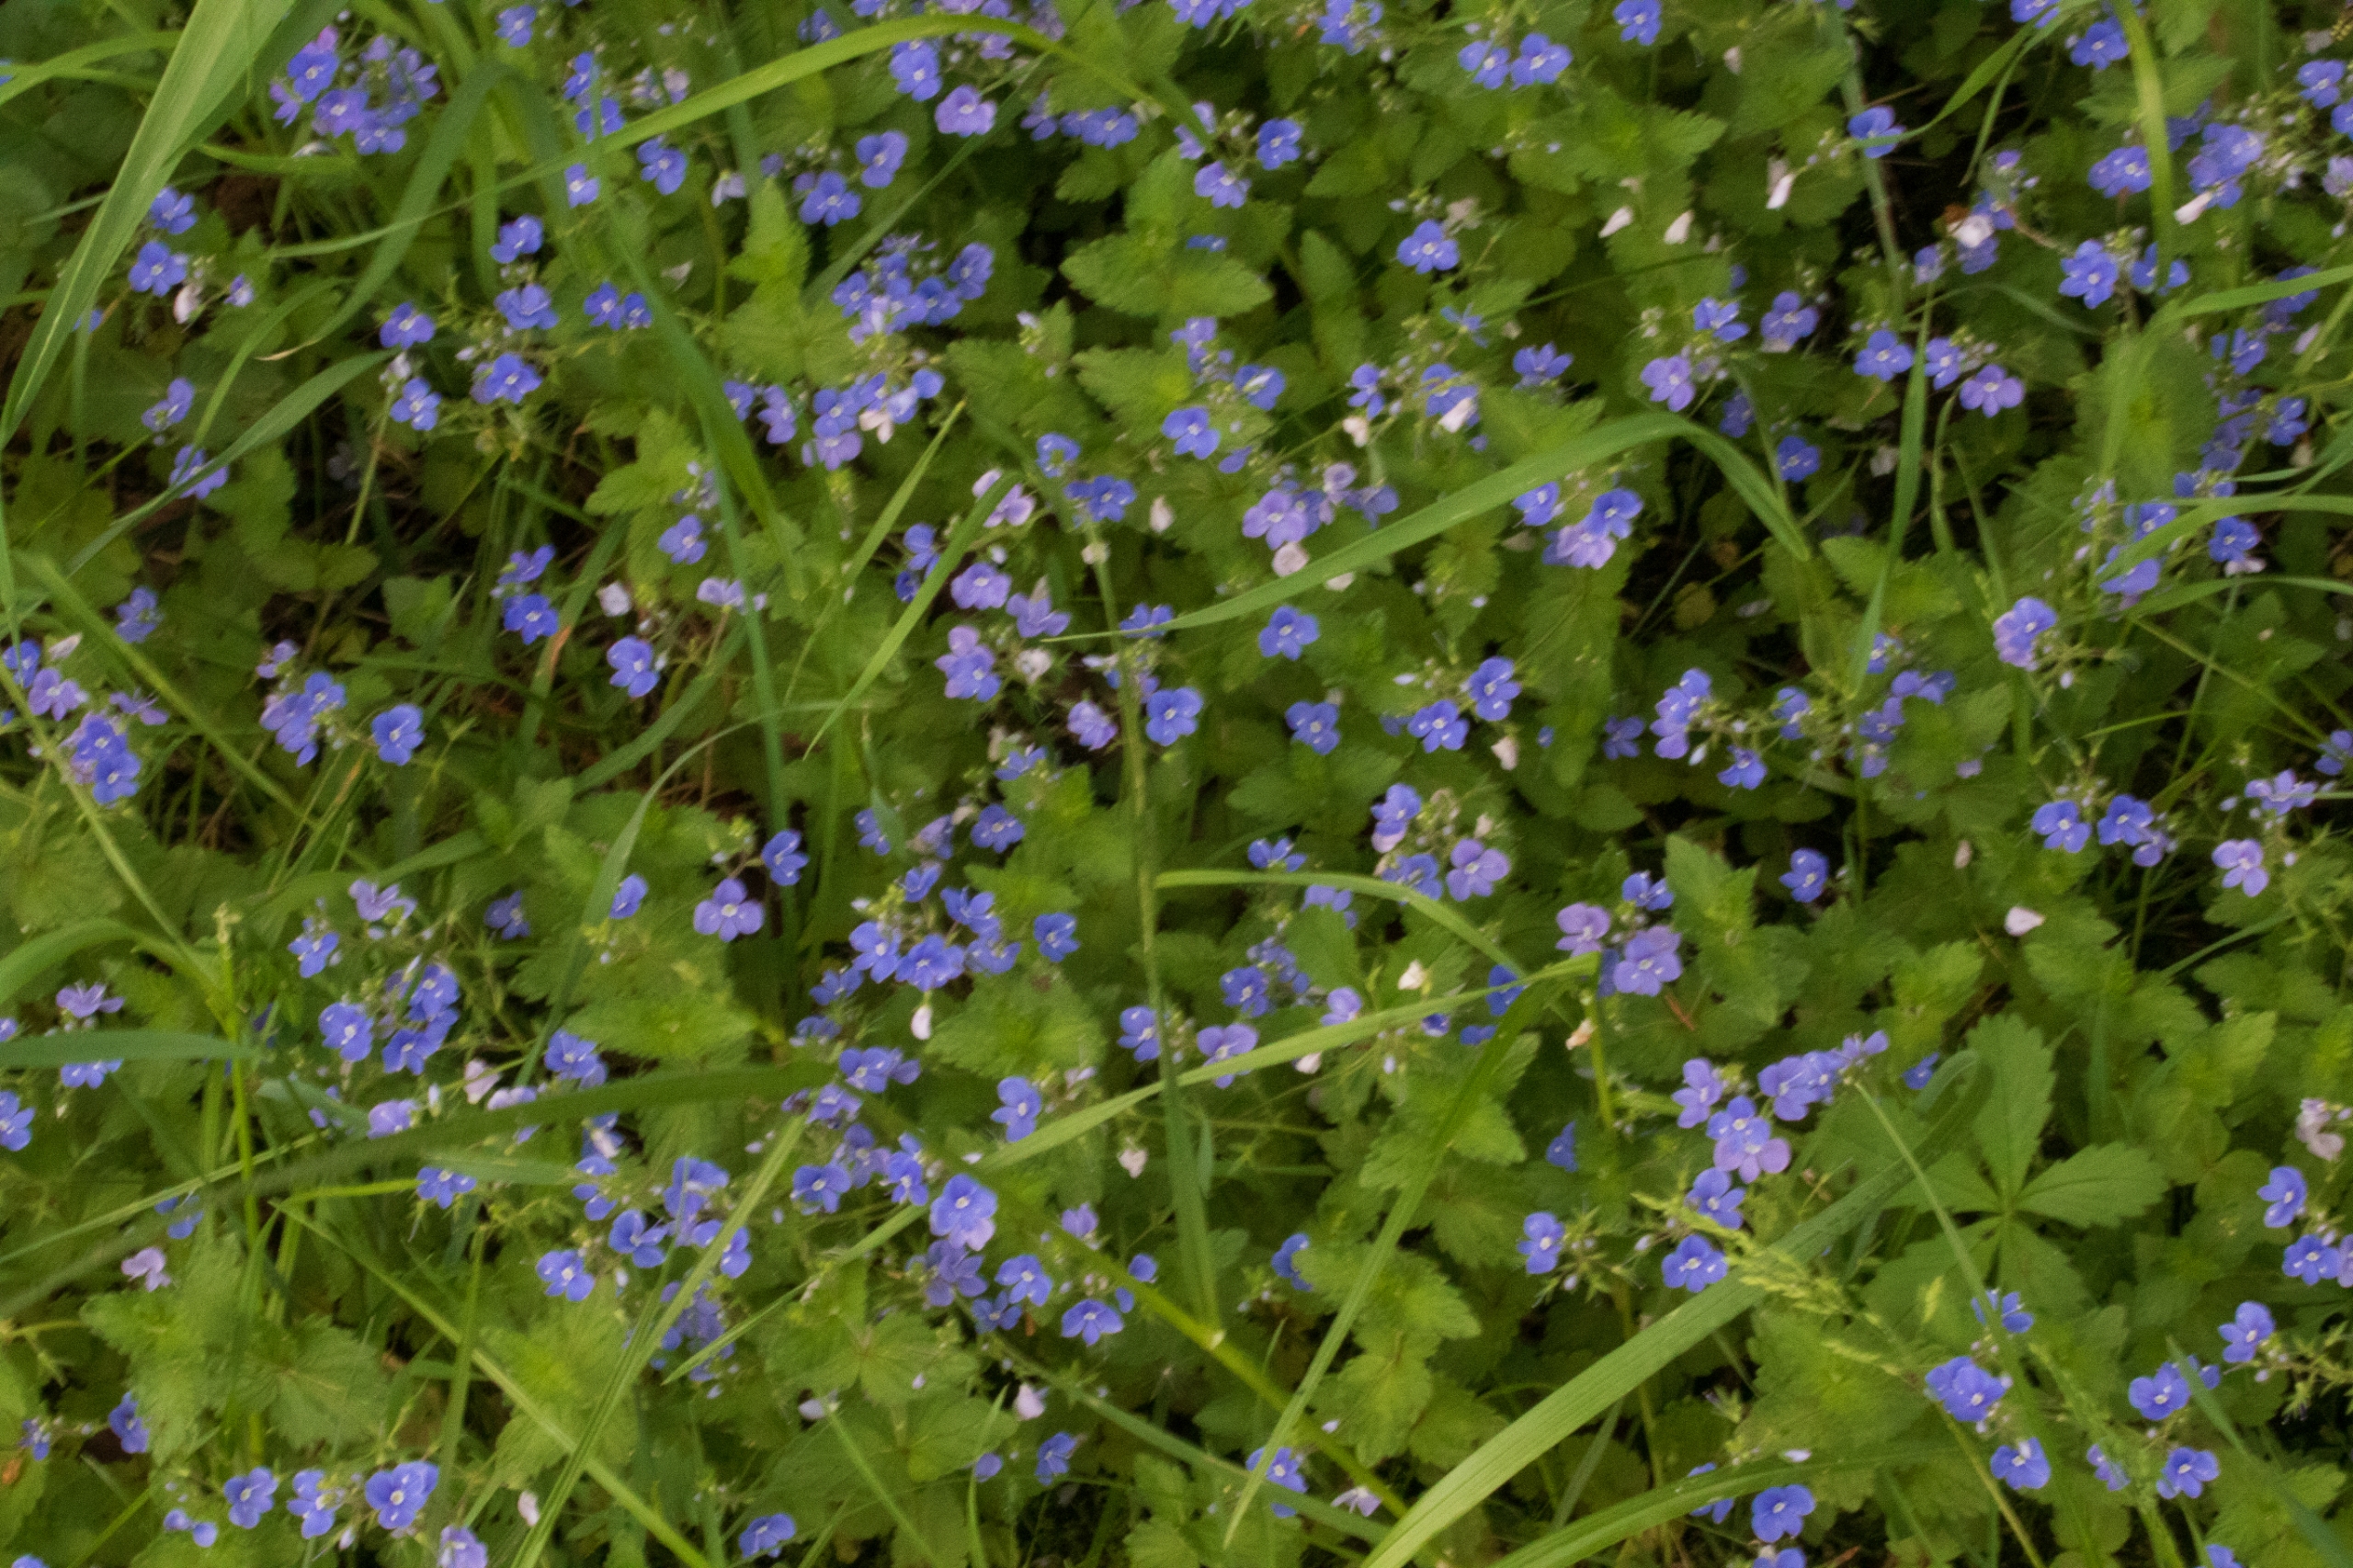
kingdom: Plantae
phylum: Tracheophyta
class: Magnoliopsida
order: Lamiales
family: Plantaginaceae
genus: Veronica
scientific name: Veronica chamaedrys
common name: Tveskægget ærenpris
